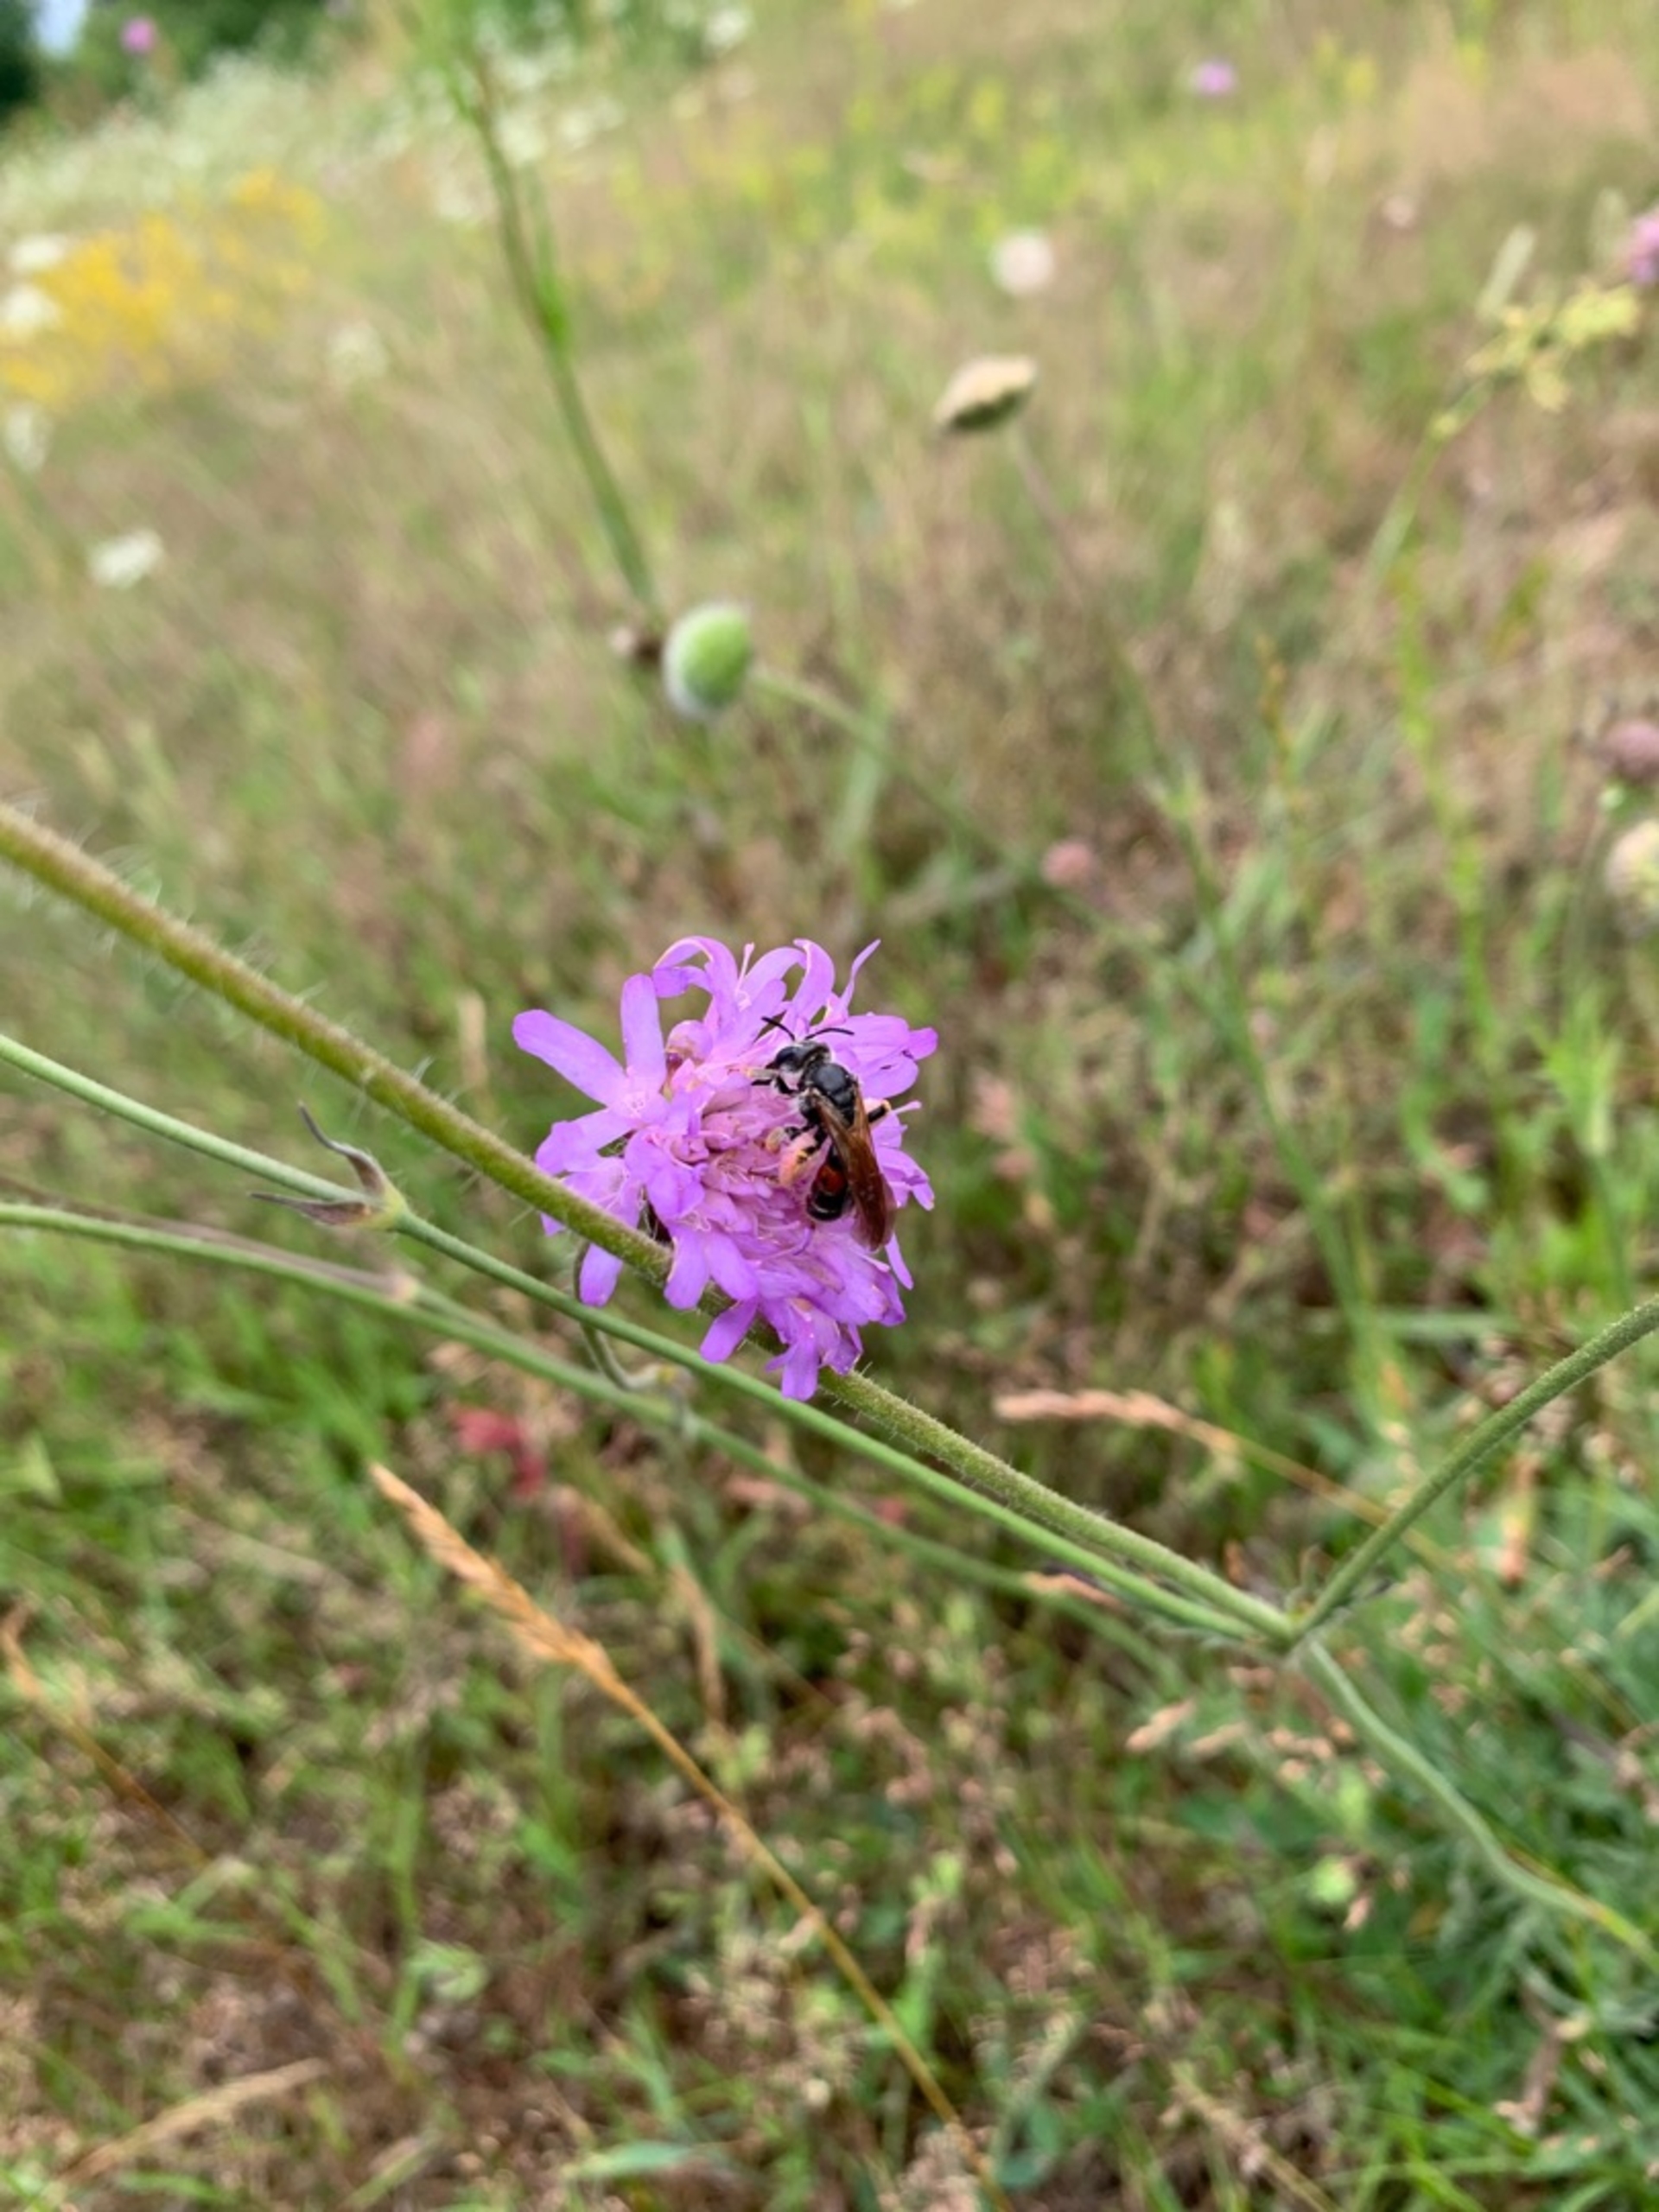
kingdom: Animalia
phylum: Arthropoda
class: Insecta
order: Hymenoptera
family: Andrenidae
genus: Andrena
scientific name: Andrena hattorfiana
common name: Blåhatjordbi
